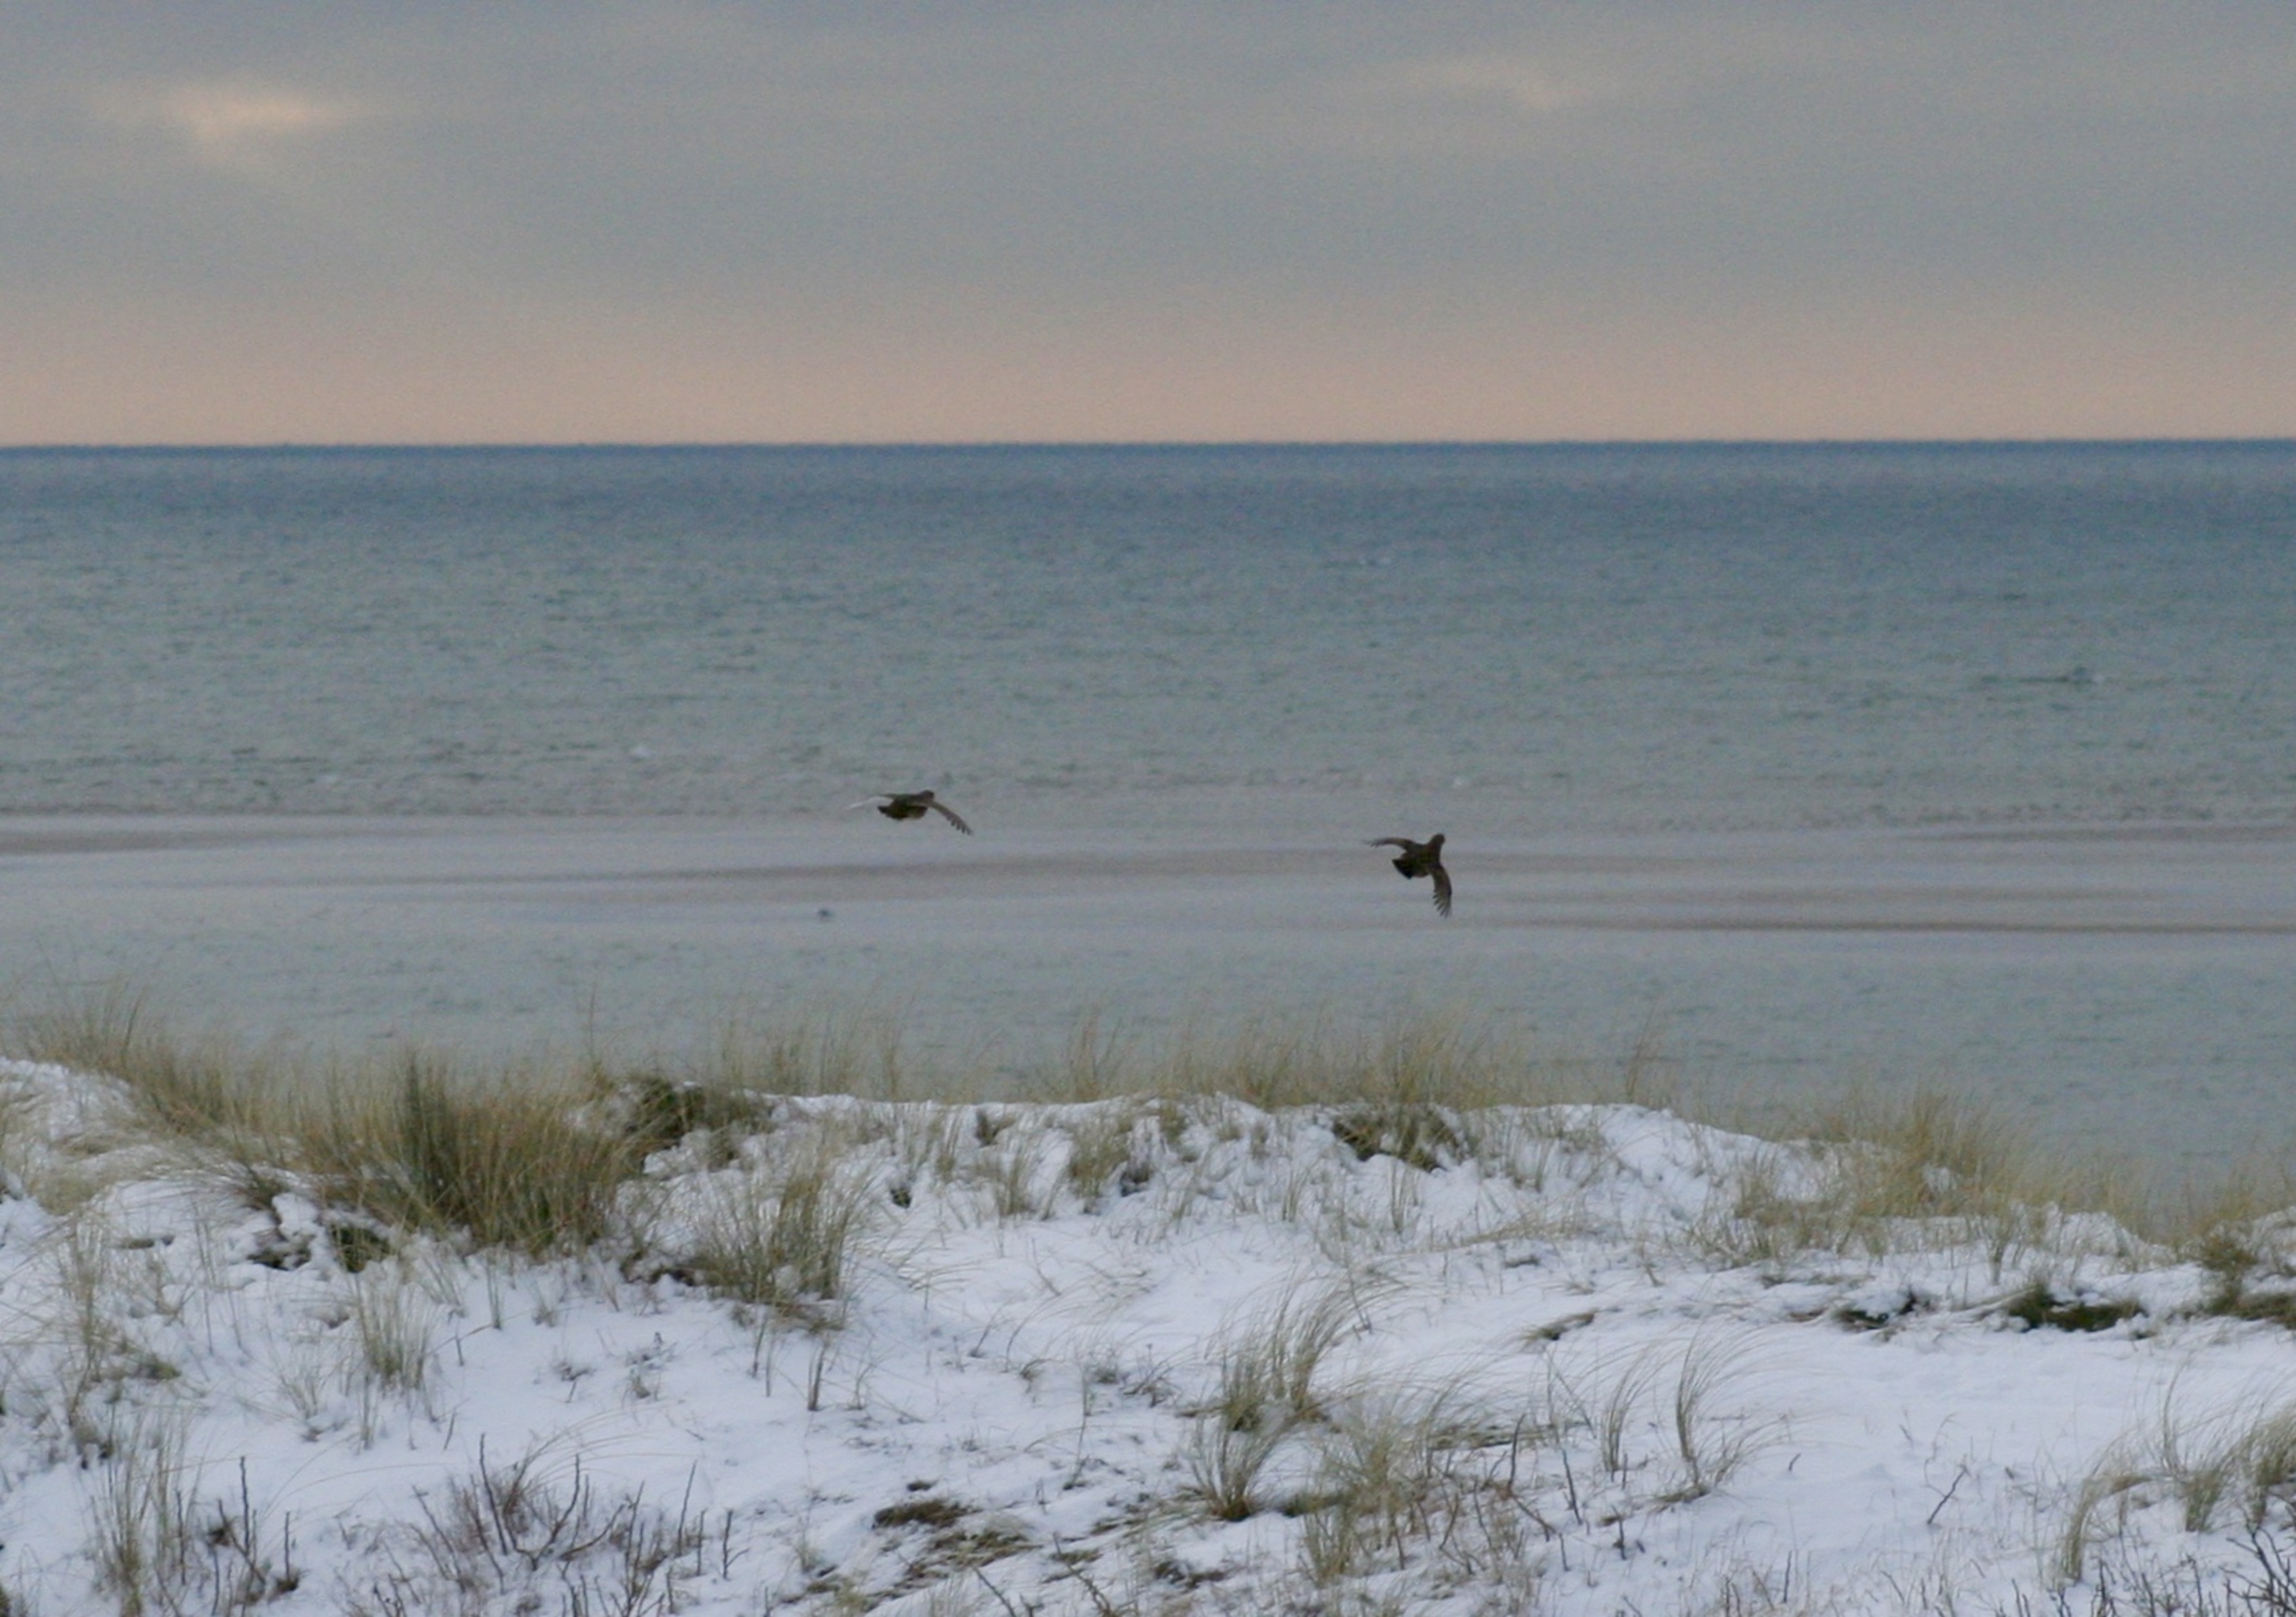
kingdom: Animalia
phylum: Chordata
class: Aves
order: Galliformes
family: Phasianidae
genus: Perdix
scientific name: Perdix perdix
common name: Agerhøne
